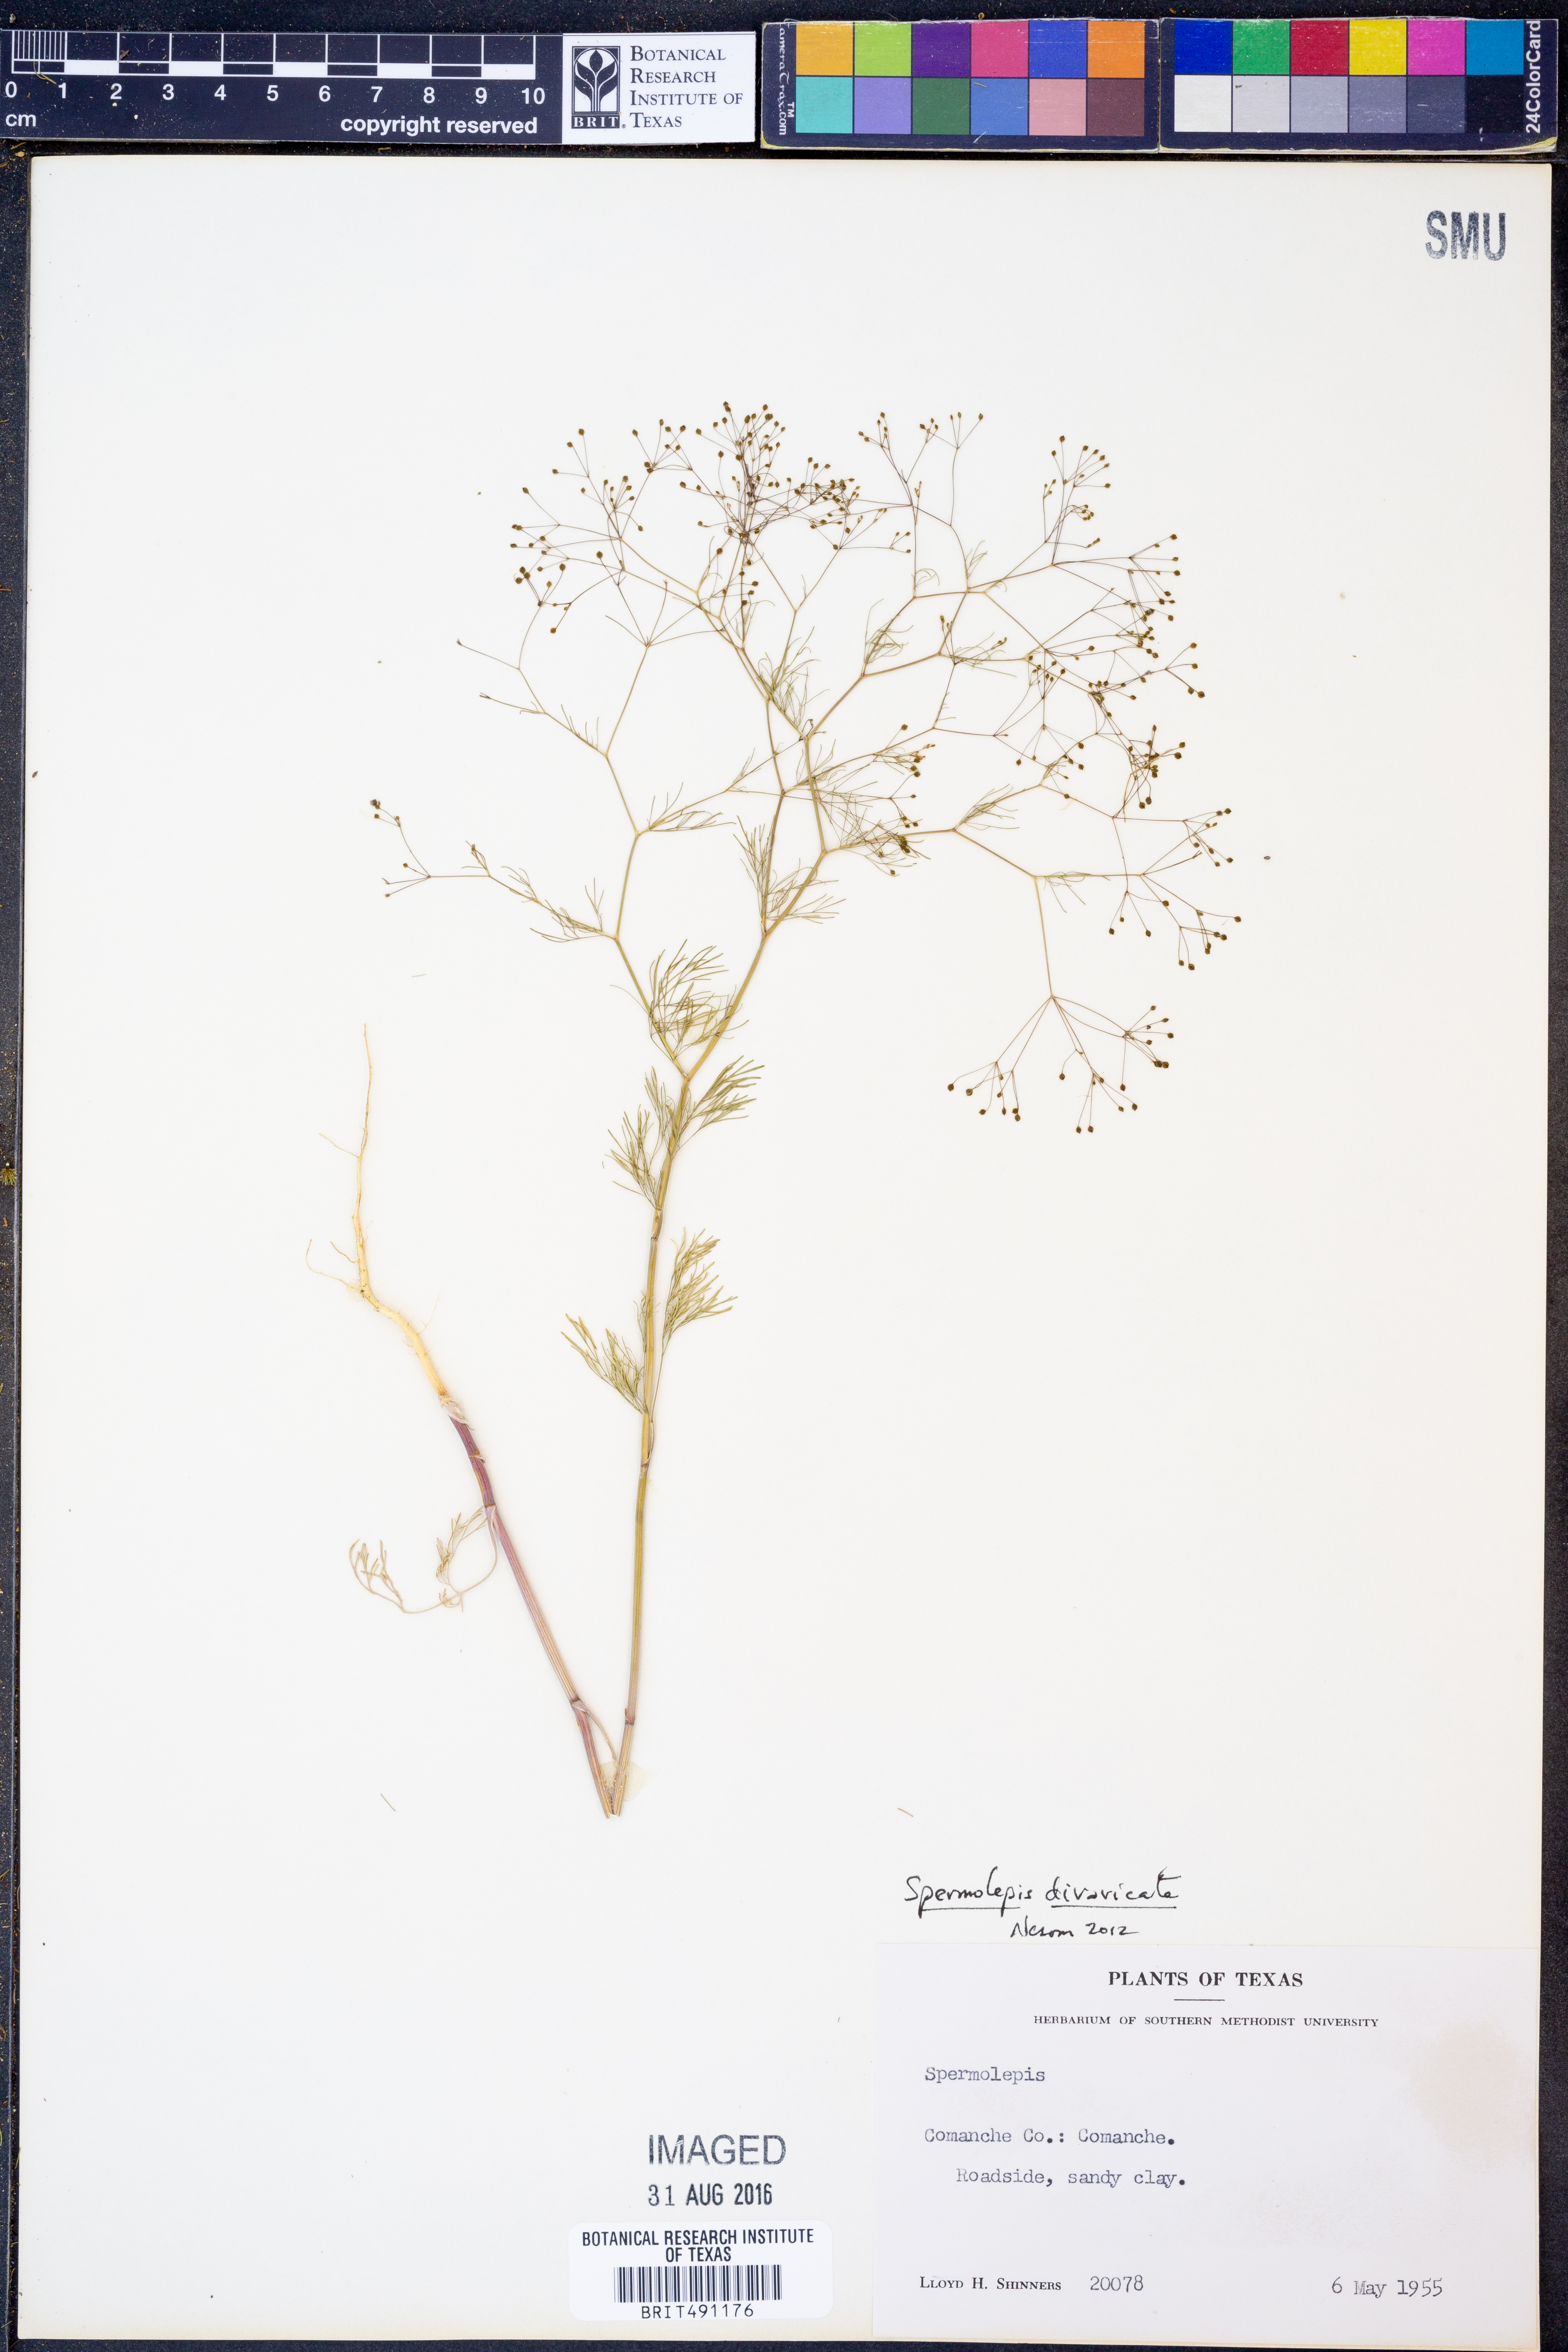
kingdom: Plantae
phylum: Tracheophyta
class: Magnoliopsida
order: Apiales
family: Apiaceae
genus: Spermolepis
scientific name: Spermolepis divaricata
